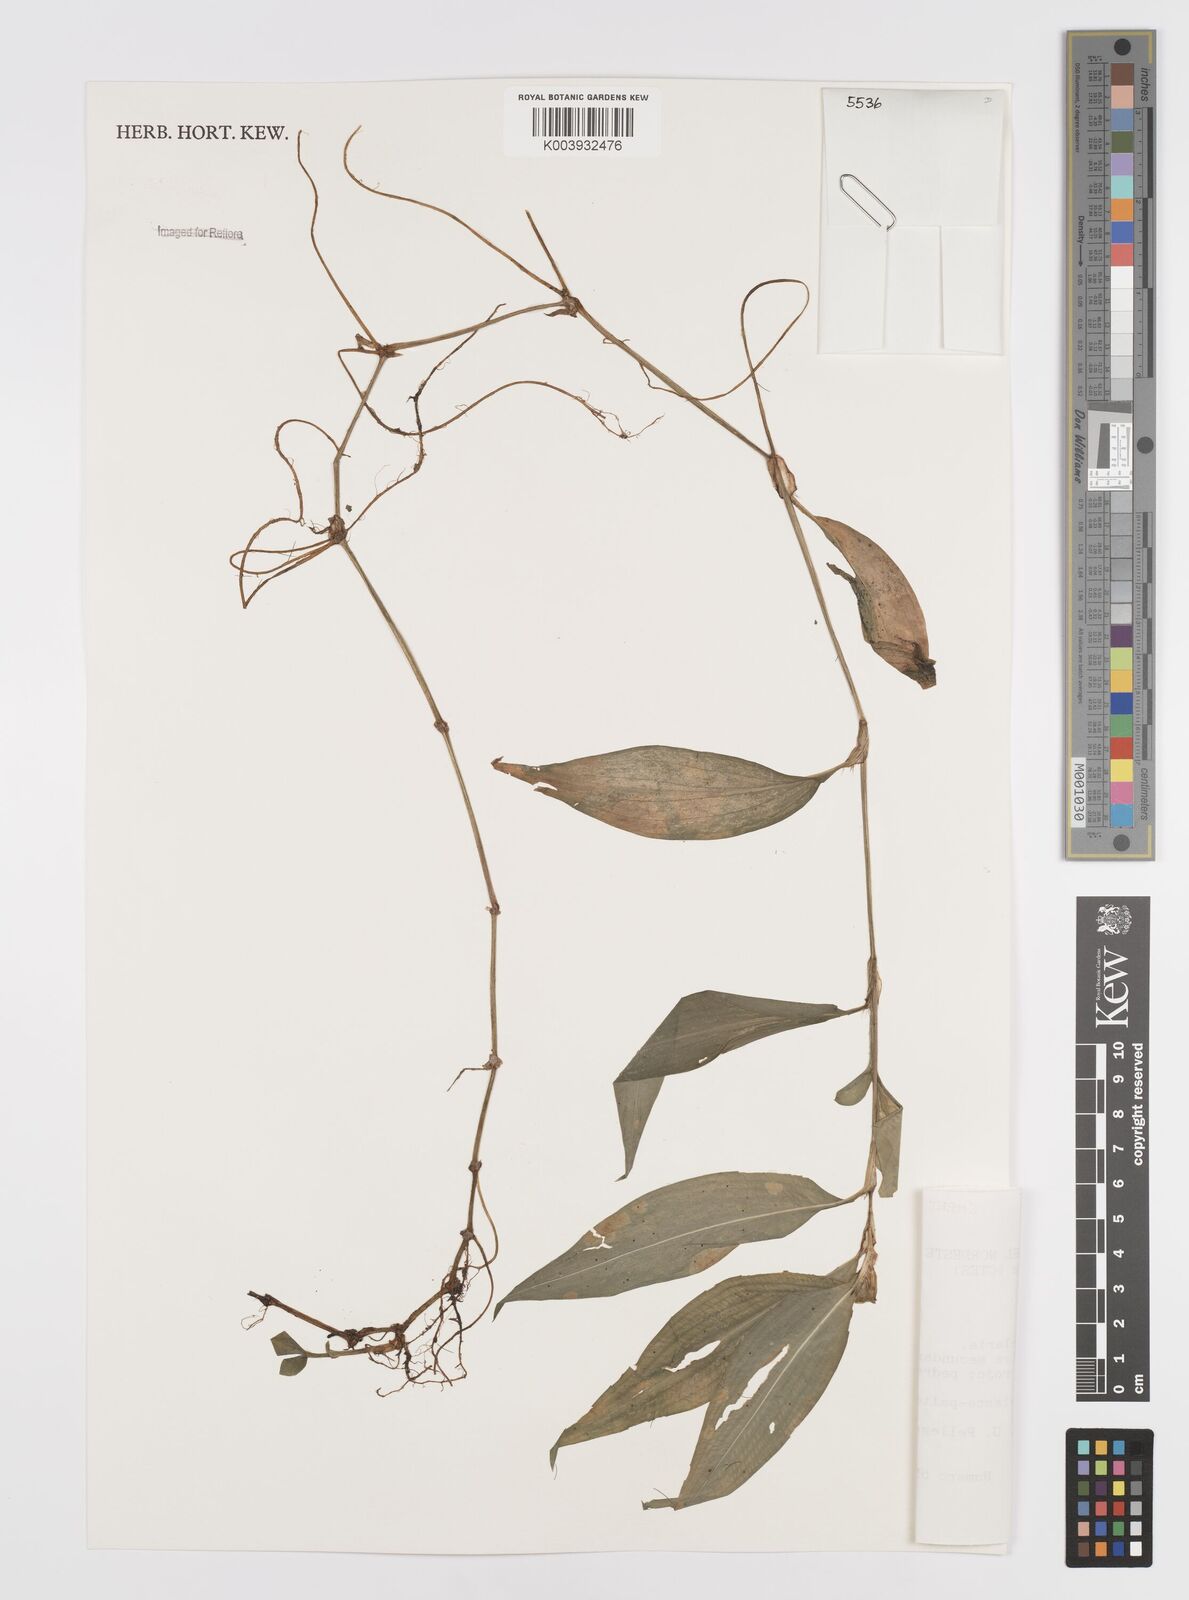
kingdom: Plantae
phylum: Tracheophyta
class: Liliopsida
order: Commelinales
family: Commelinaceae
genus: Commelina
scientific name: Commelina obliqua
